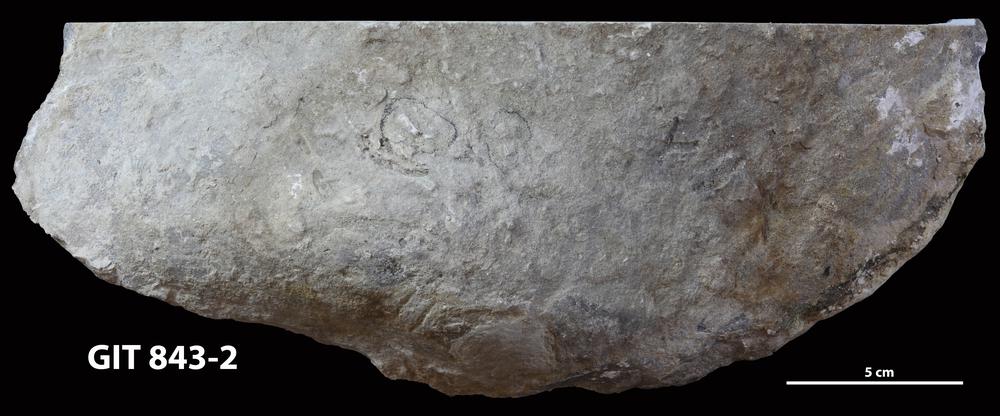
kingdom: Animalia
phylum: Porifera
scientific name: Porifera
